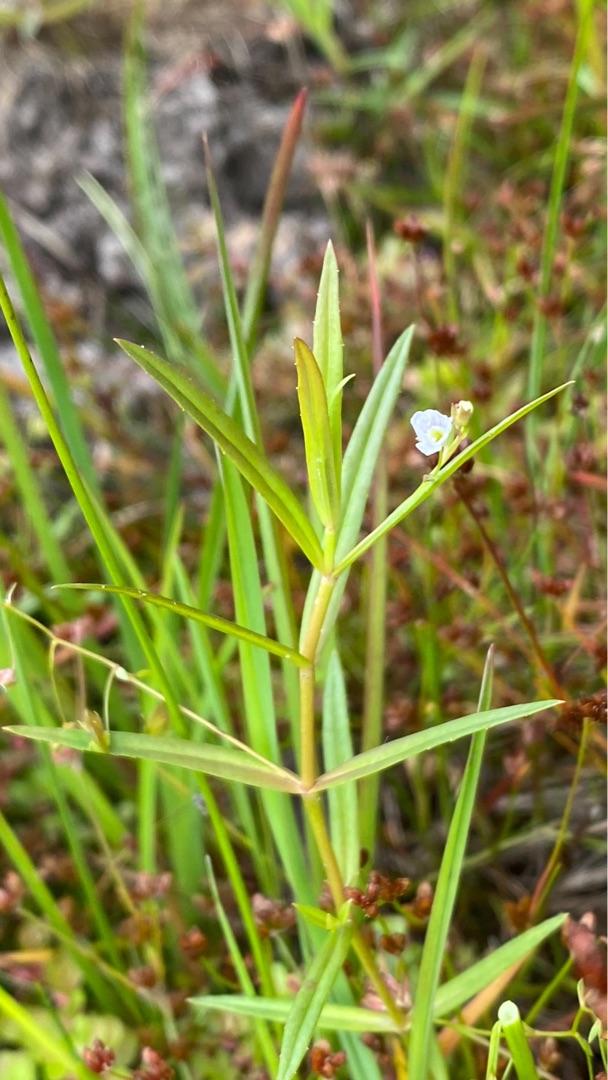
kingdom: Plantae
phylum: Tracheophyta
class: Magnoliopsida
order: Lamiales
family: Plantaginaceae
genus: Veronica
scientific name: Veronica scutellata
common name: Smalbladet ærenpris
